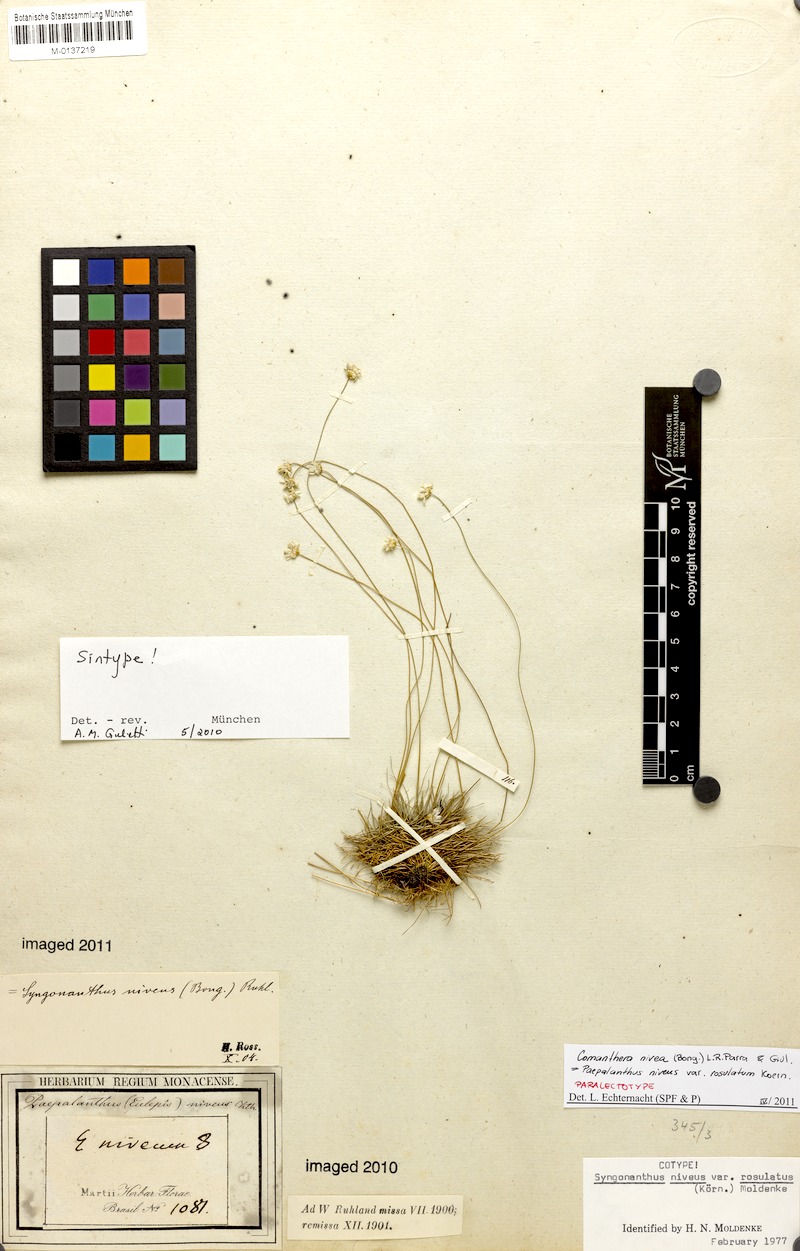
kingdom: Plantae
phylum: Tracheophyta
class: Liliopsida
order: Poales
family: Eriocaulaceae
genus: Comanthera
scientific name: Comanthera nivea
